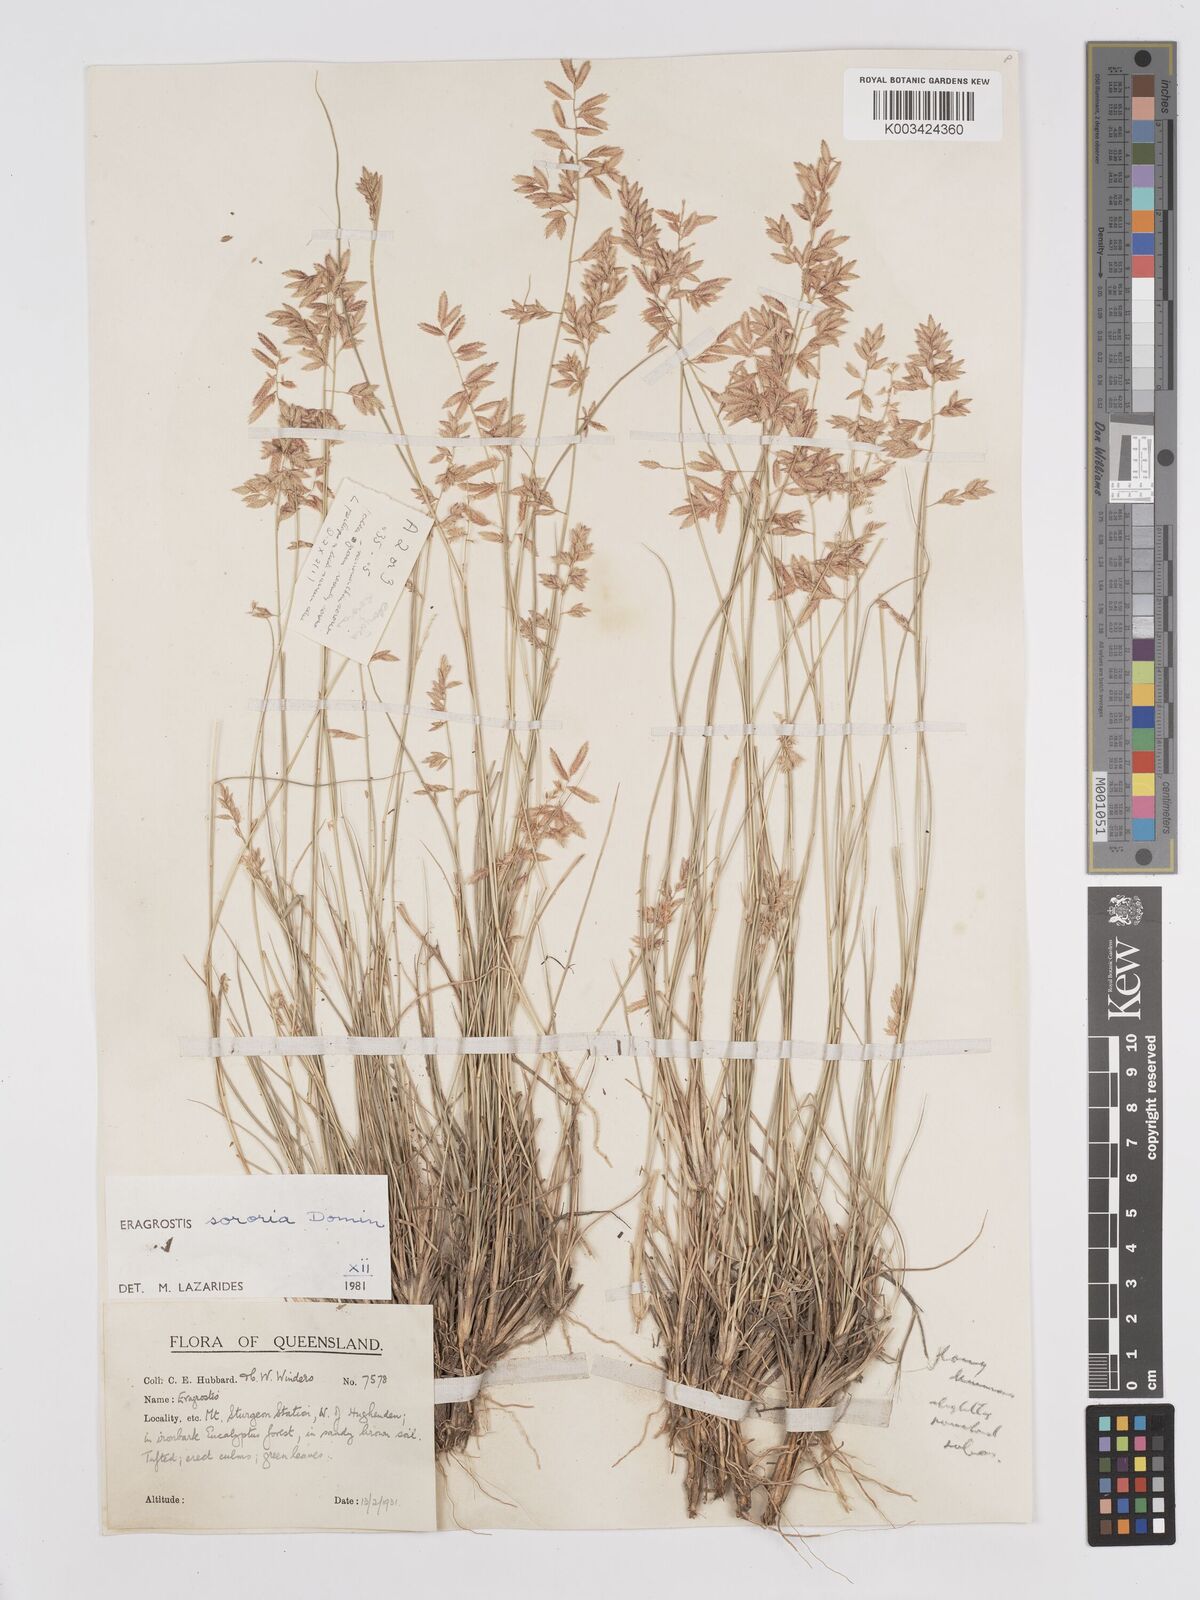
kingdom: Plantae
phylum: Tracheophyta
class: Liliopsida
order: Poales
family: Poaceae
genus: Eragrostis
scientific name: Eragrostis sororia
